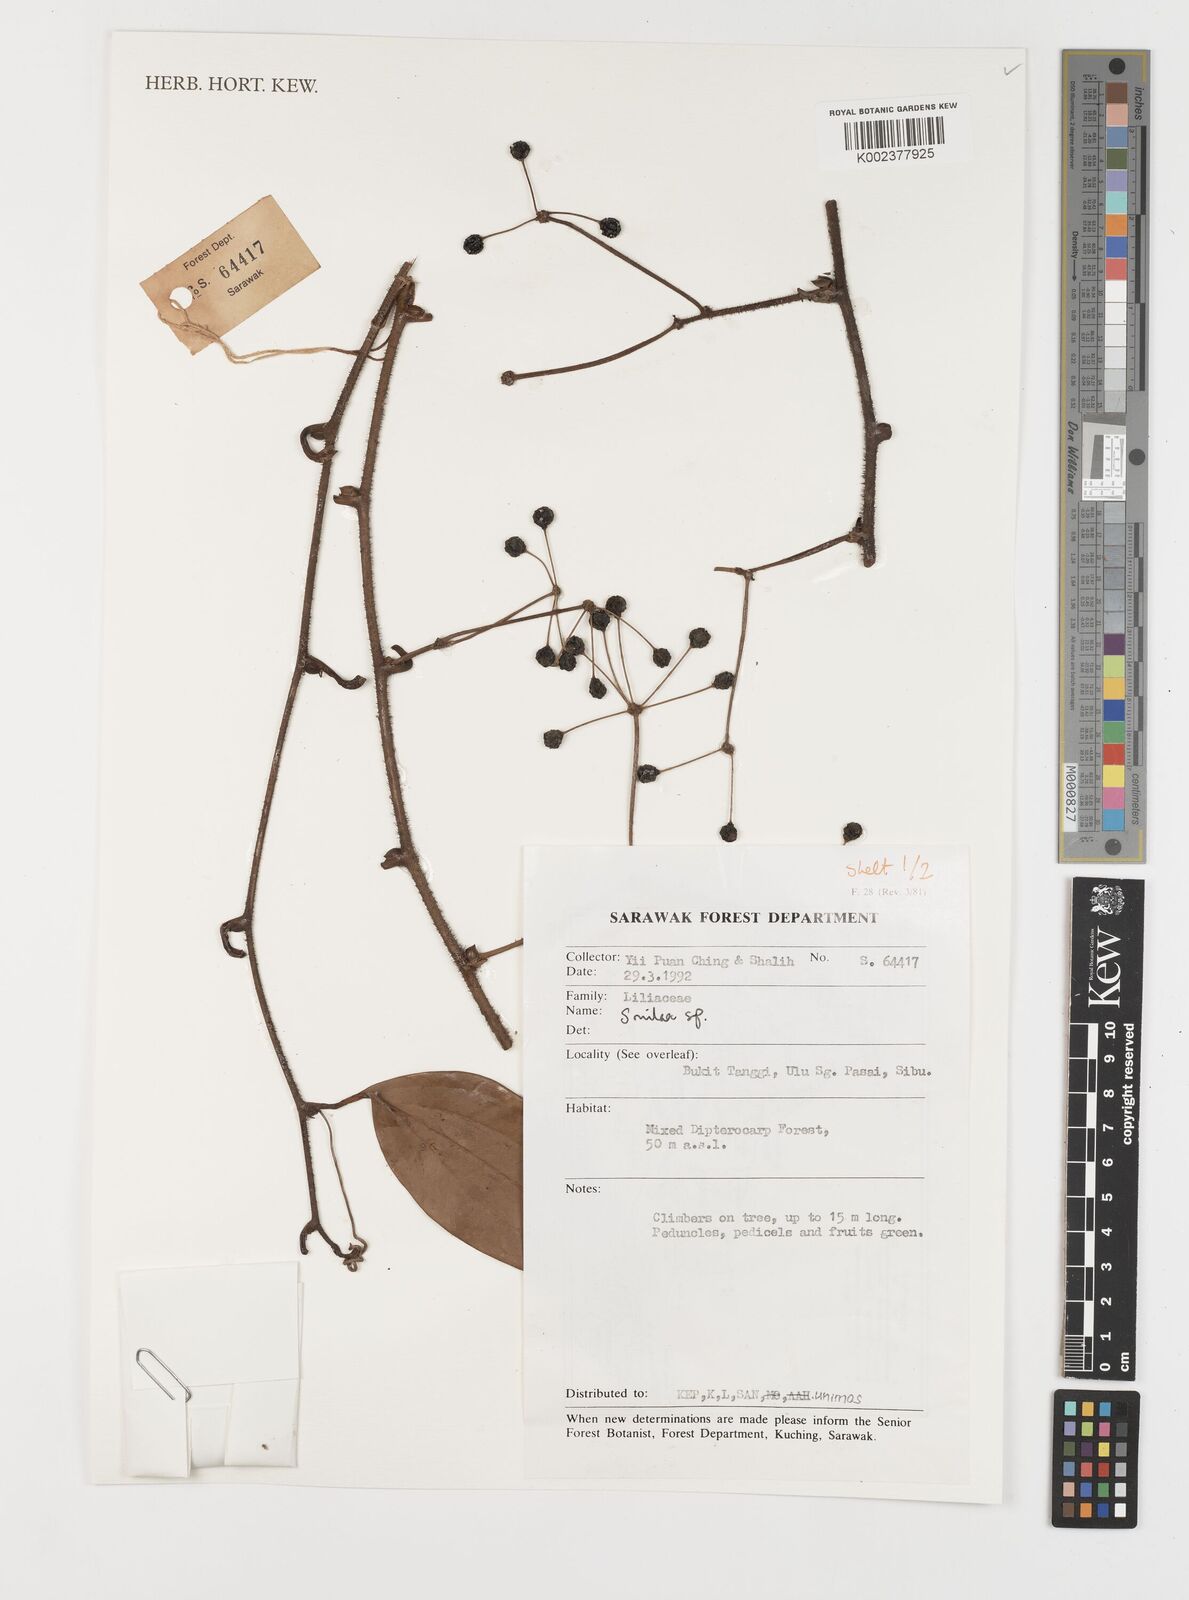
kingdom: Plantae
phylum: Tracheophyta
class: Liliopsida
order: Liliales
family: Smilacaceae
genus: Smilax
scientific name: Smilax
